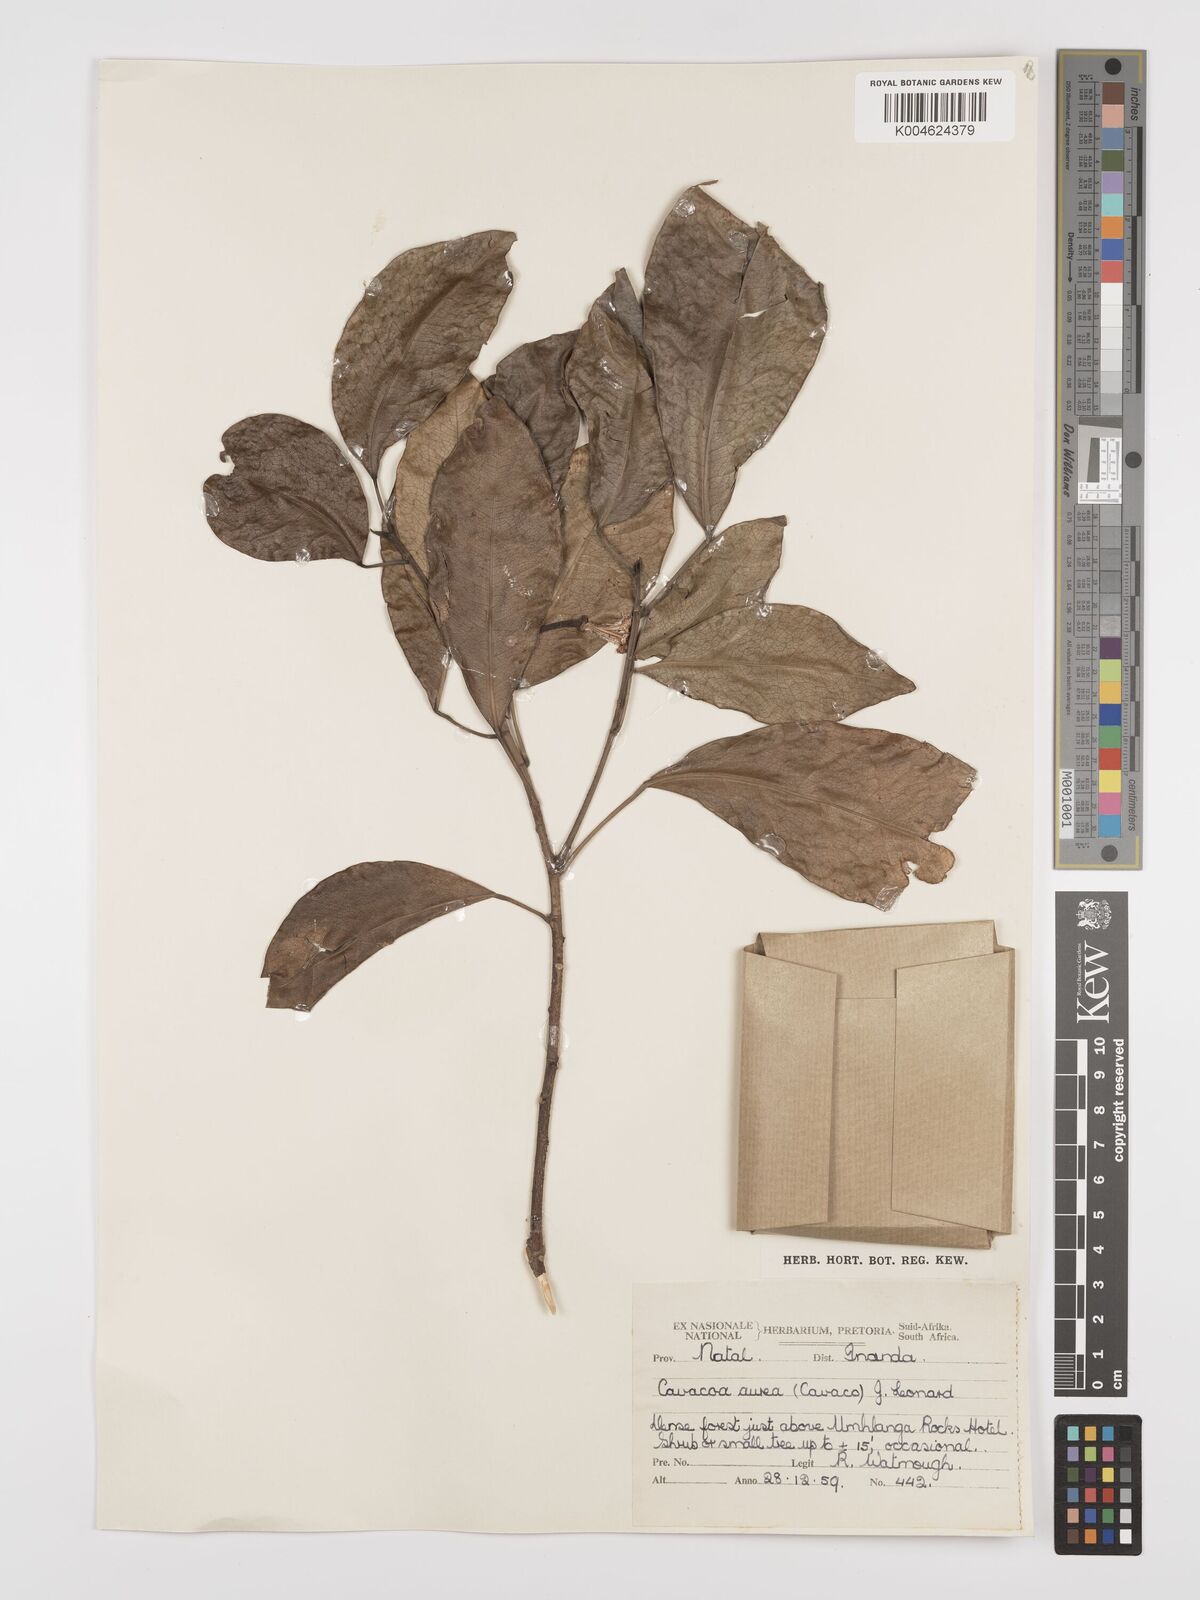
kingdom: Plantae
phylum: Tracheophyta
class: Magnoliopsida
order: Malpighiales
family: Euphorbiaceae
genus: Cavacoa
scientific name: Cavacoa aurea
